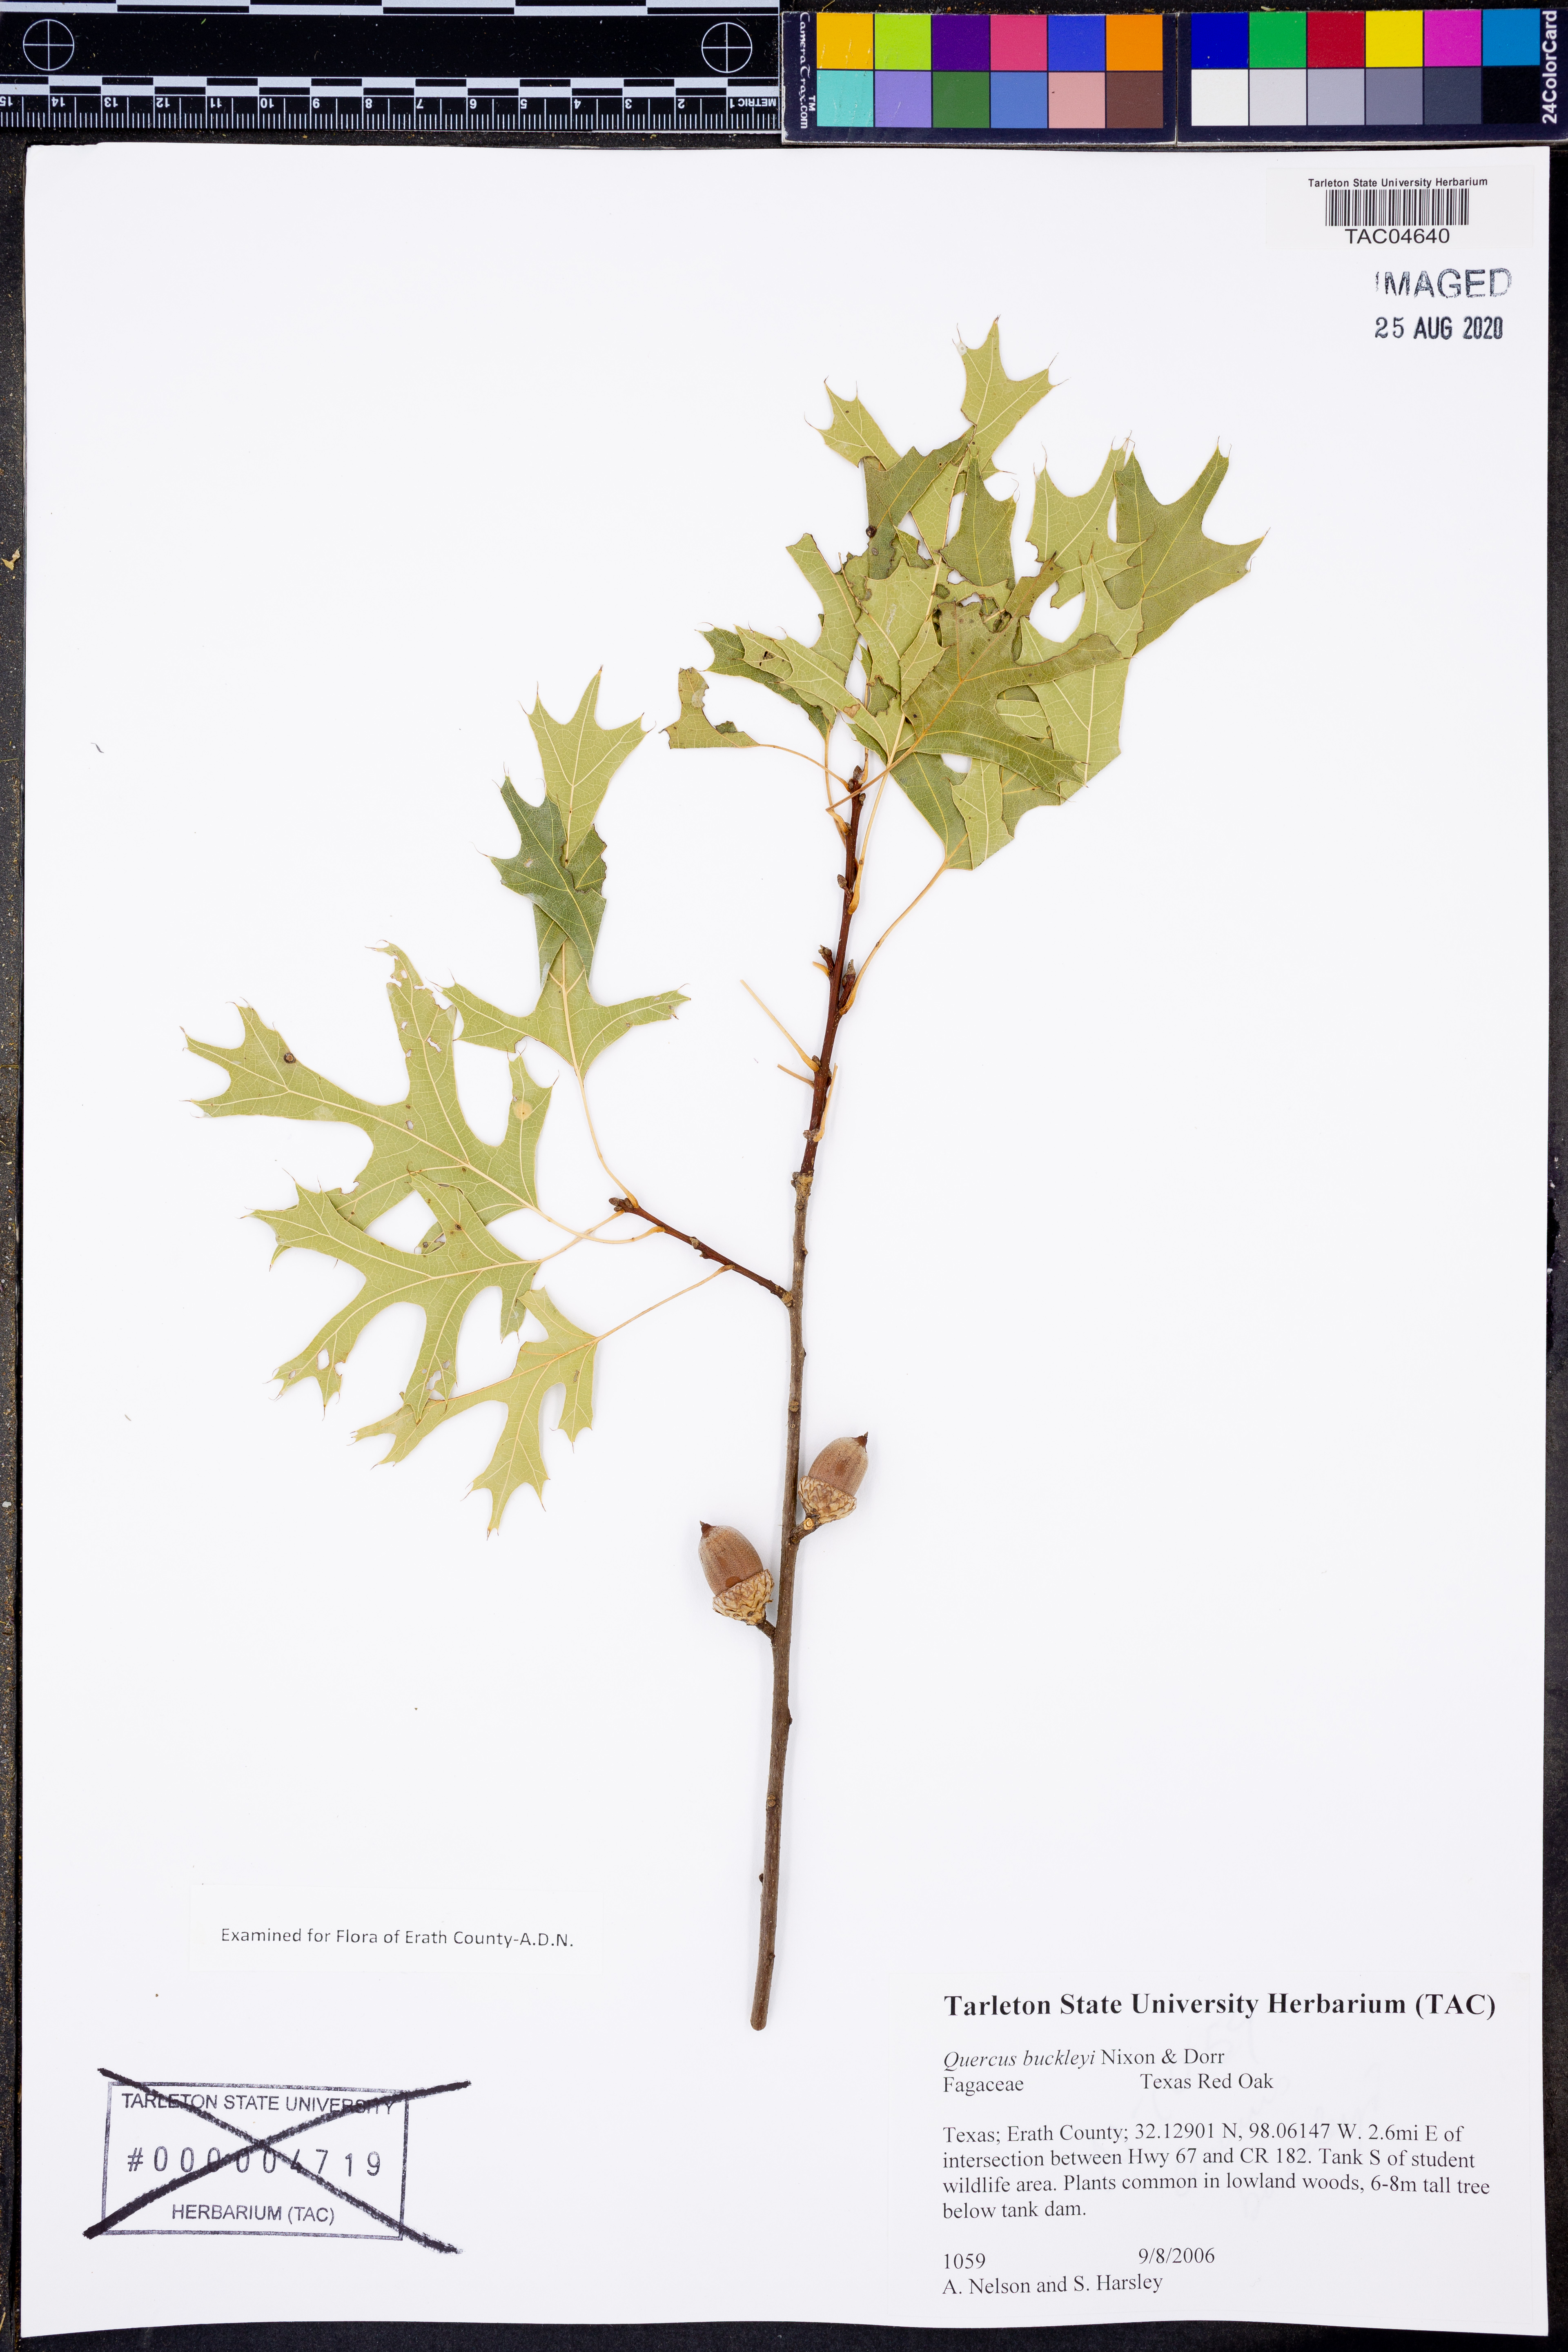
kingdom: Plantae
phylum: Tracheophyta
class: Magnoliopsida
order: Fagales
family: Fagaceae
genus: Quercus
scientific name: Quercus buckleyi
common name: Buckley oak
